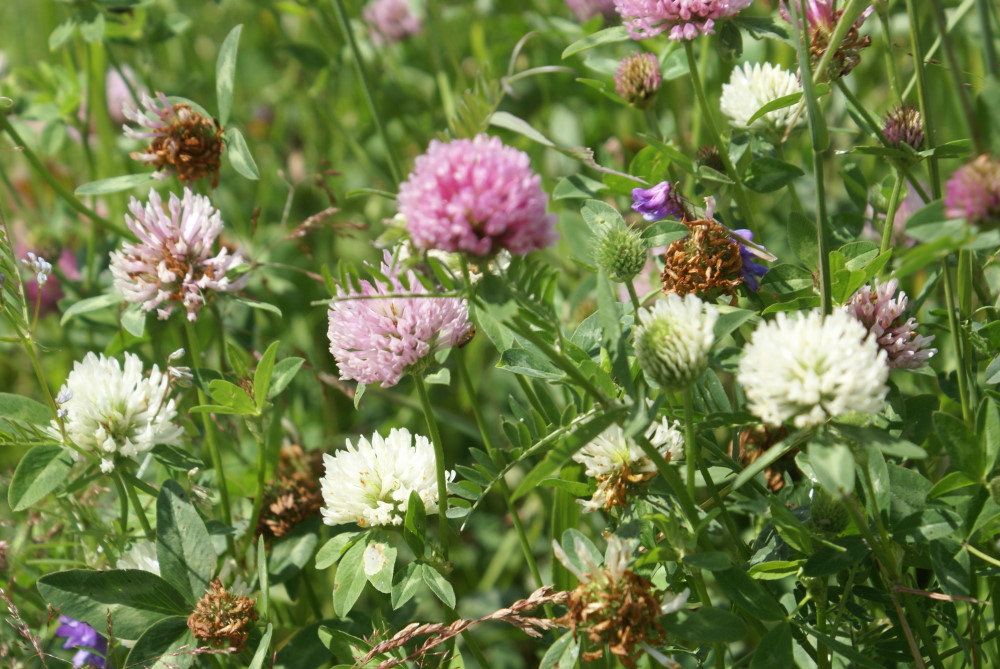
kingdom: Plantae
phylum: Tracheophyta
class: Magnoliopsida
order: Fabales
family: Fabaceae
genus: Trifolium
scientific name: Trifolium pratense
